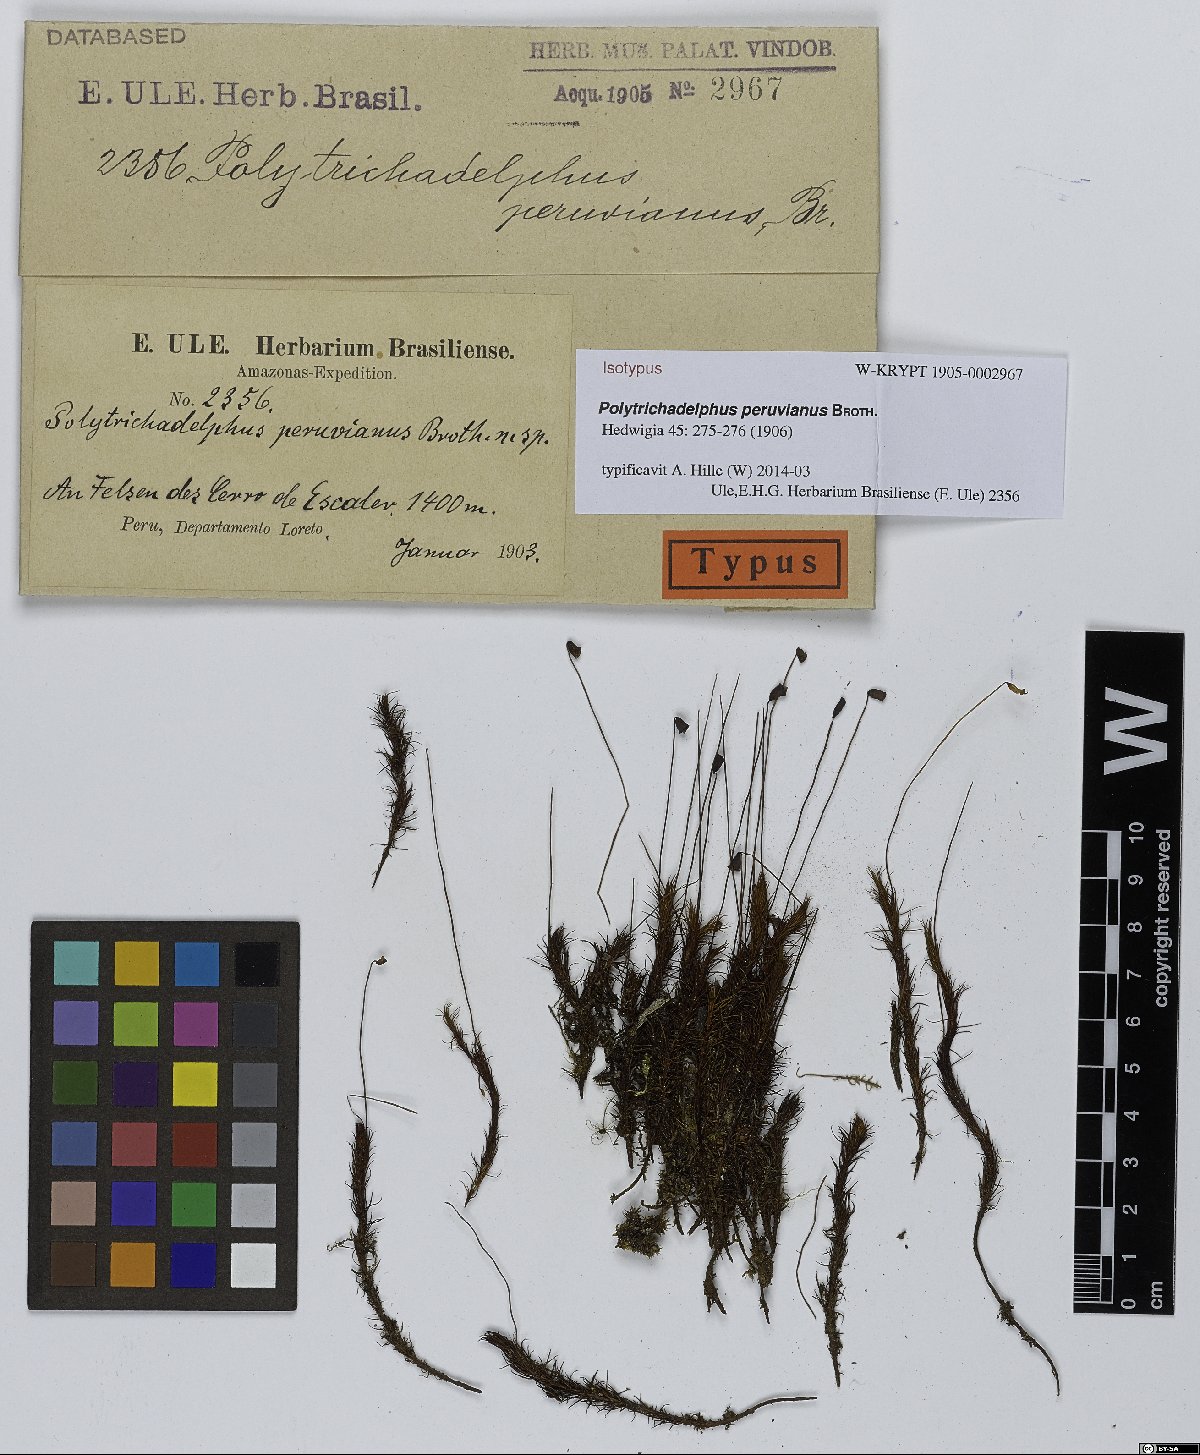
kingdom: Plantae
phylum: Bryophyta
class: Polytrichopsida
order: Polytrichales
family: Polytrichaceae
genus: Polytrichadelphus
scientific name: Polytrichadelphus peruvianus
